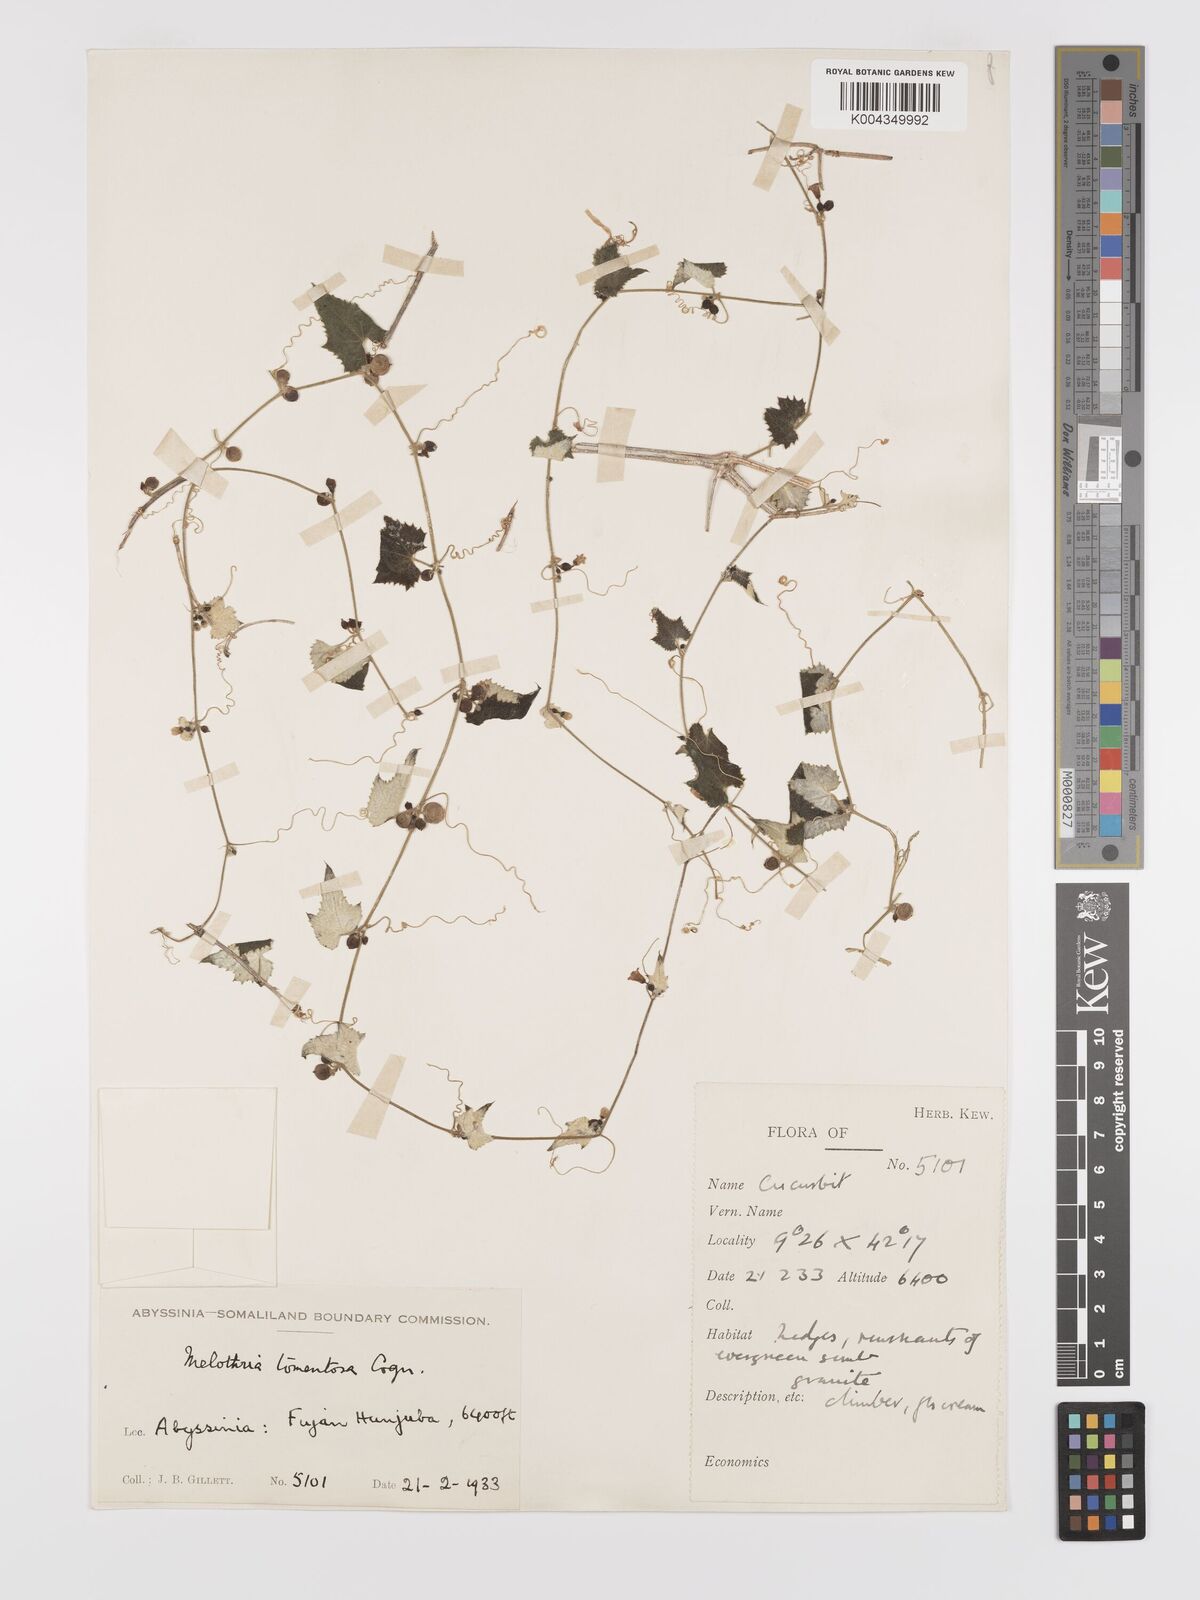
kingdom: Plantae
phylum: Tracheophyta
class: Magnoliopsida
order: Cucurbitales
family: Cucurbitaceae
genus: Zehneria
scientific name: Zehneria scabra
